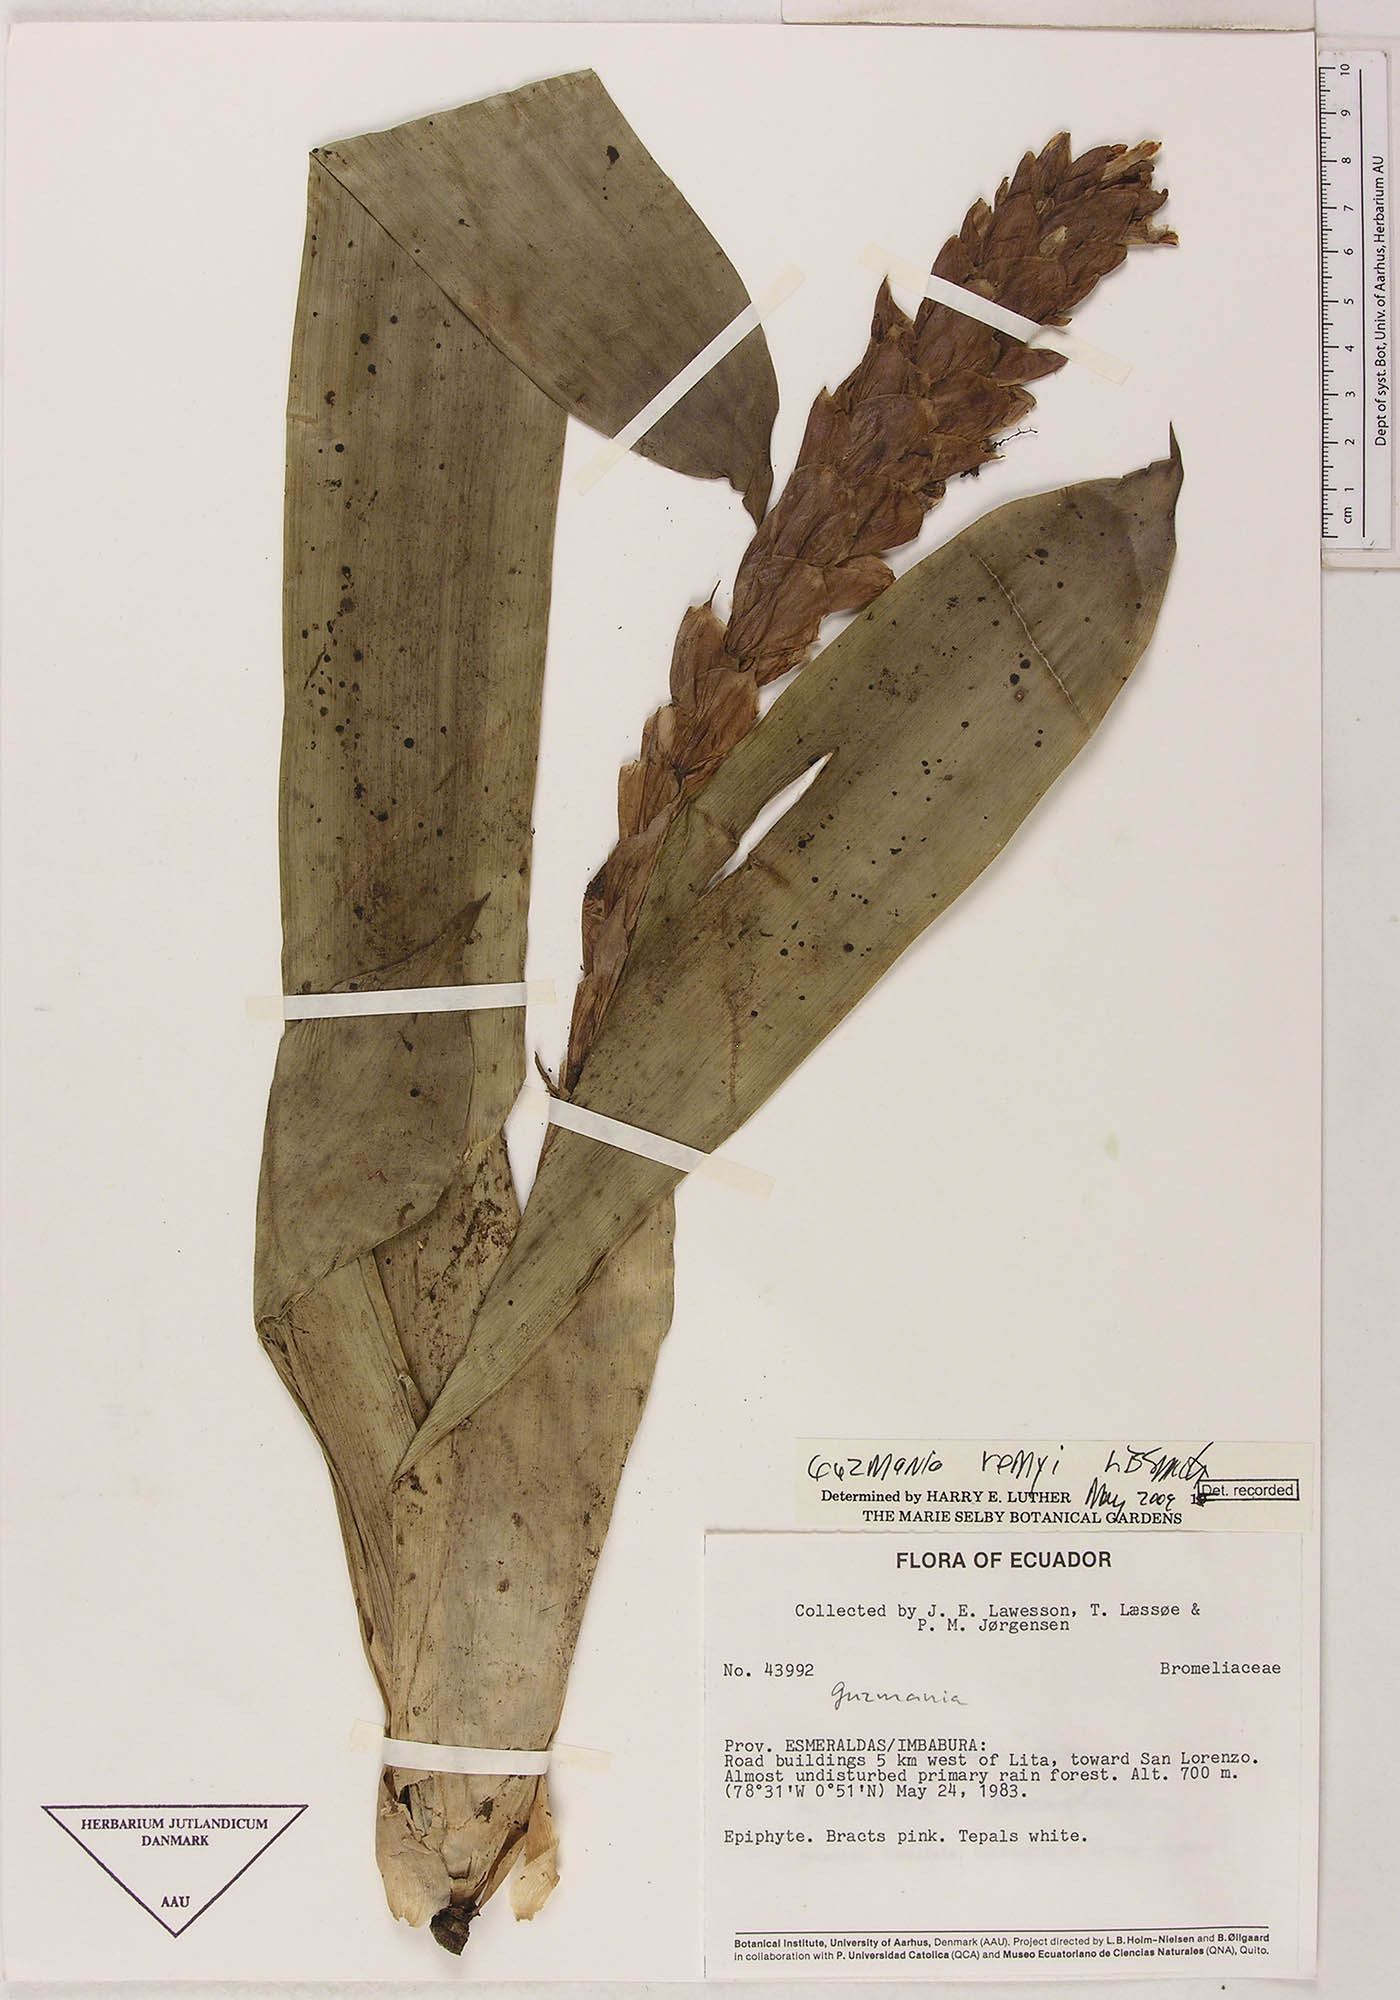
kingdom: Plantae
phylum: Tracheophyta
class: Liliopsida
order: Poales
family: Bromeliaceae
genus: Guzmania
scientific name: Guzmania remyi
